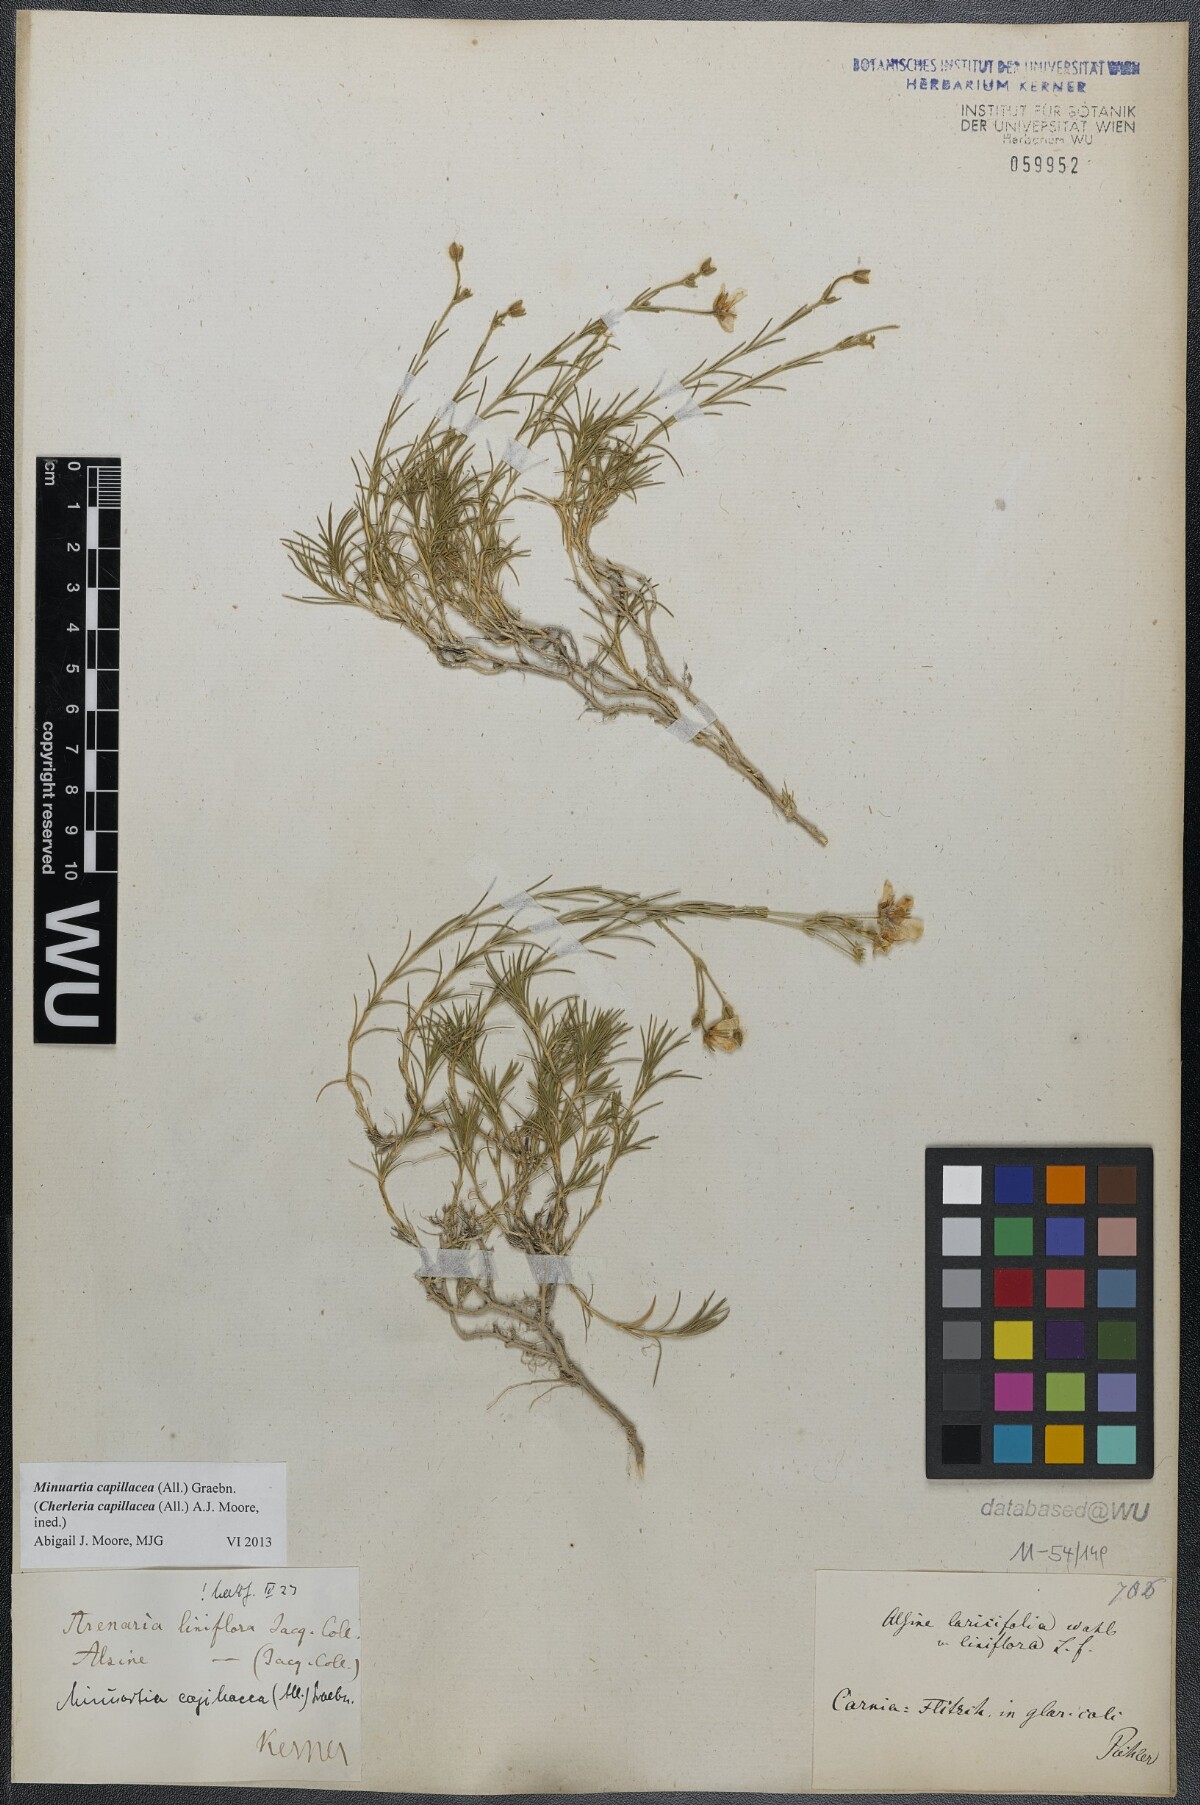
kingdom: Plantae
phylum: Tracheophyta
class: Magnoliopsida
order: Caryophyllales
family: Caryophyllaceae
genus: Cherleria
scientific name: Cherleria capillacea
